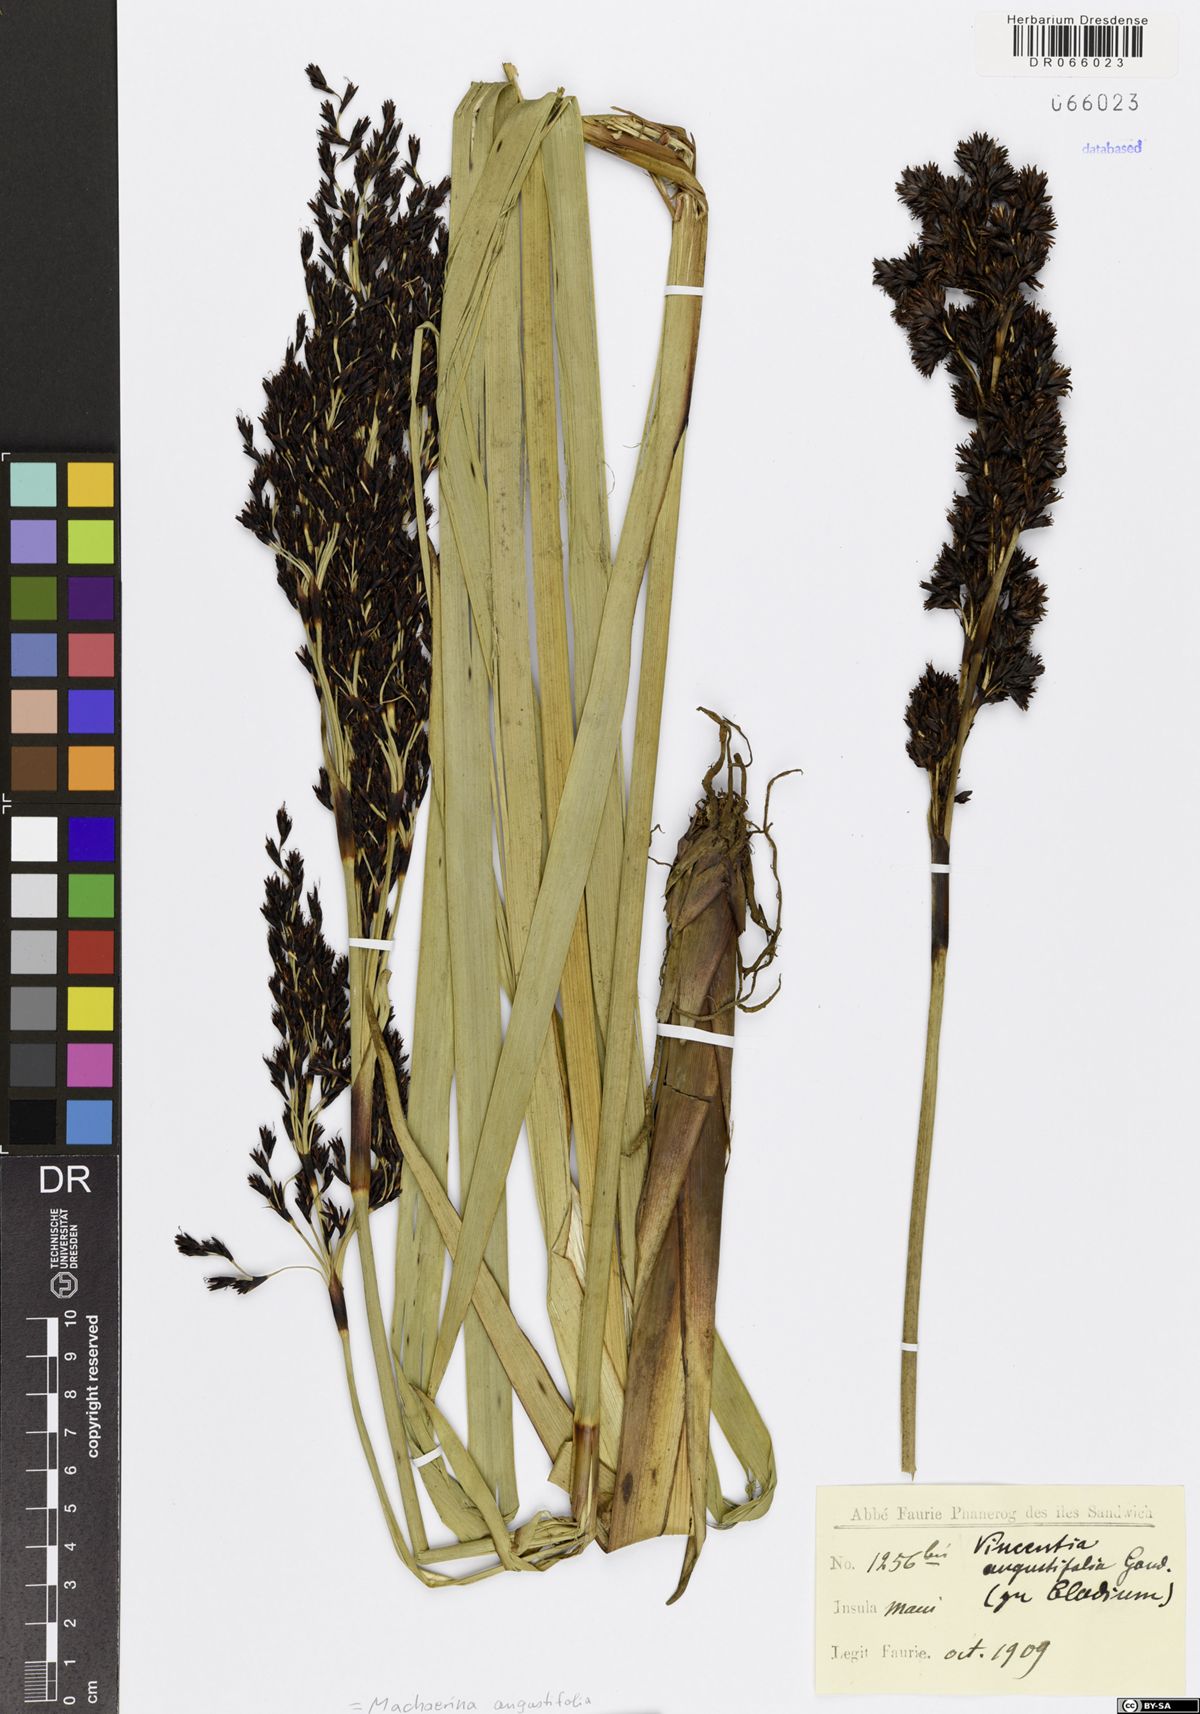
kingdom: Plantae
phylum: Tracheophyta
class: Liliopsida
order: Poales
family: Cyperaceae
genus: Machaerina
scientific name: Machaerina angustifolia
